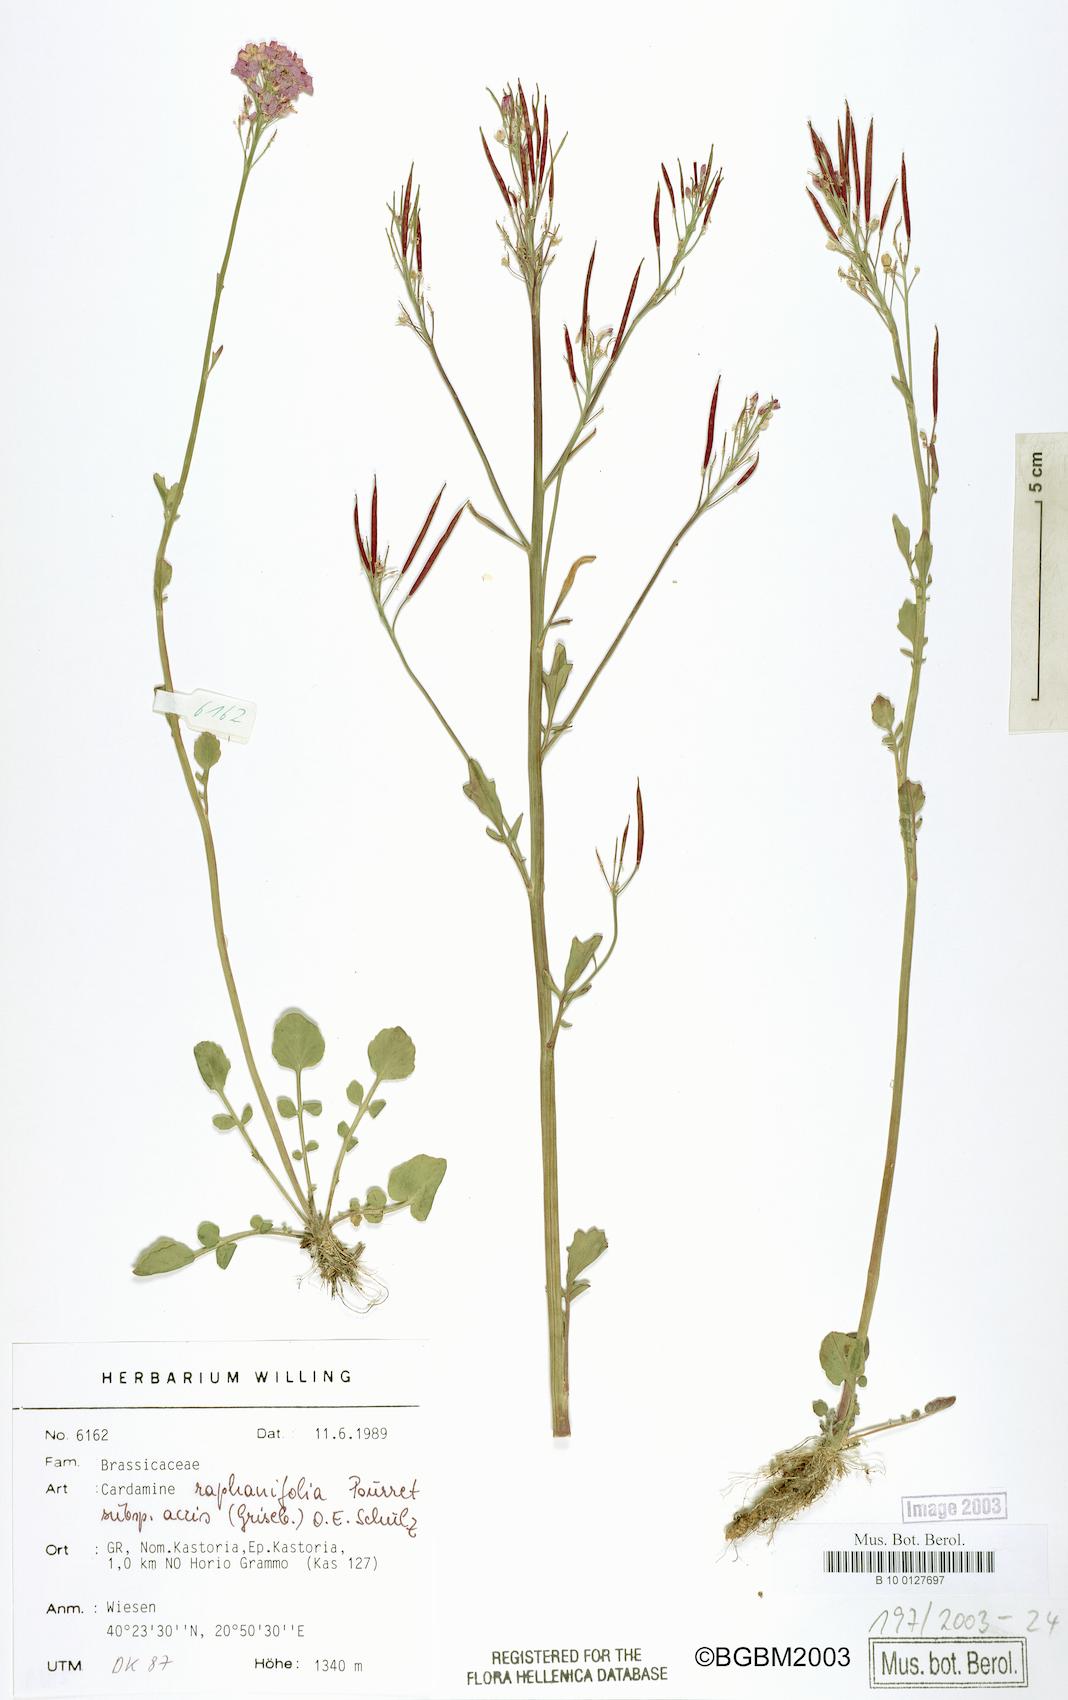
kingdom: Plantae
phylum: Tracheophyta
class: Magnoliopsida
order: Brassicales
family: Brassicaceae
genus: Cardamine
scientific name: Cardamine raphanifolia
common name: Greater cuckooflower
